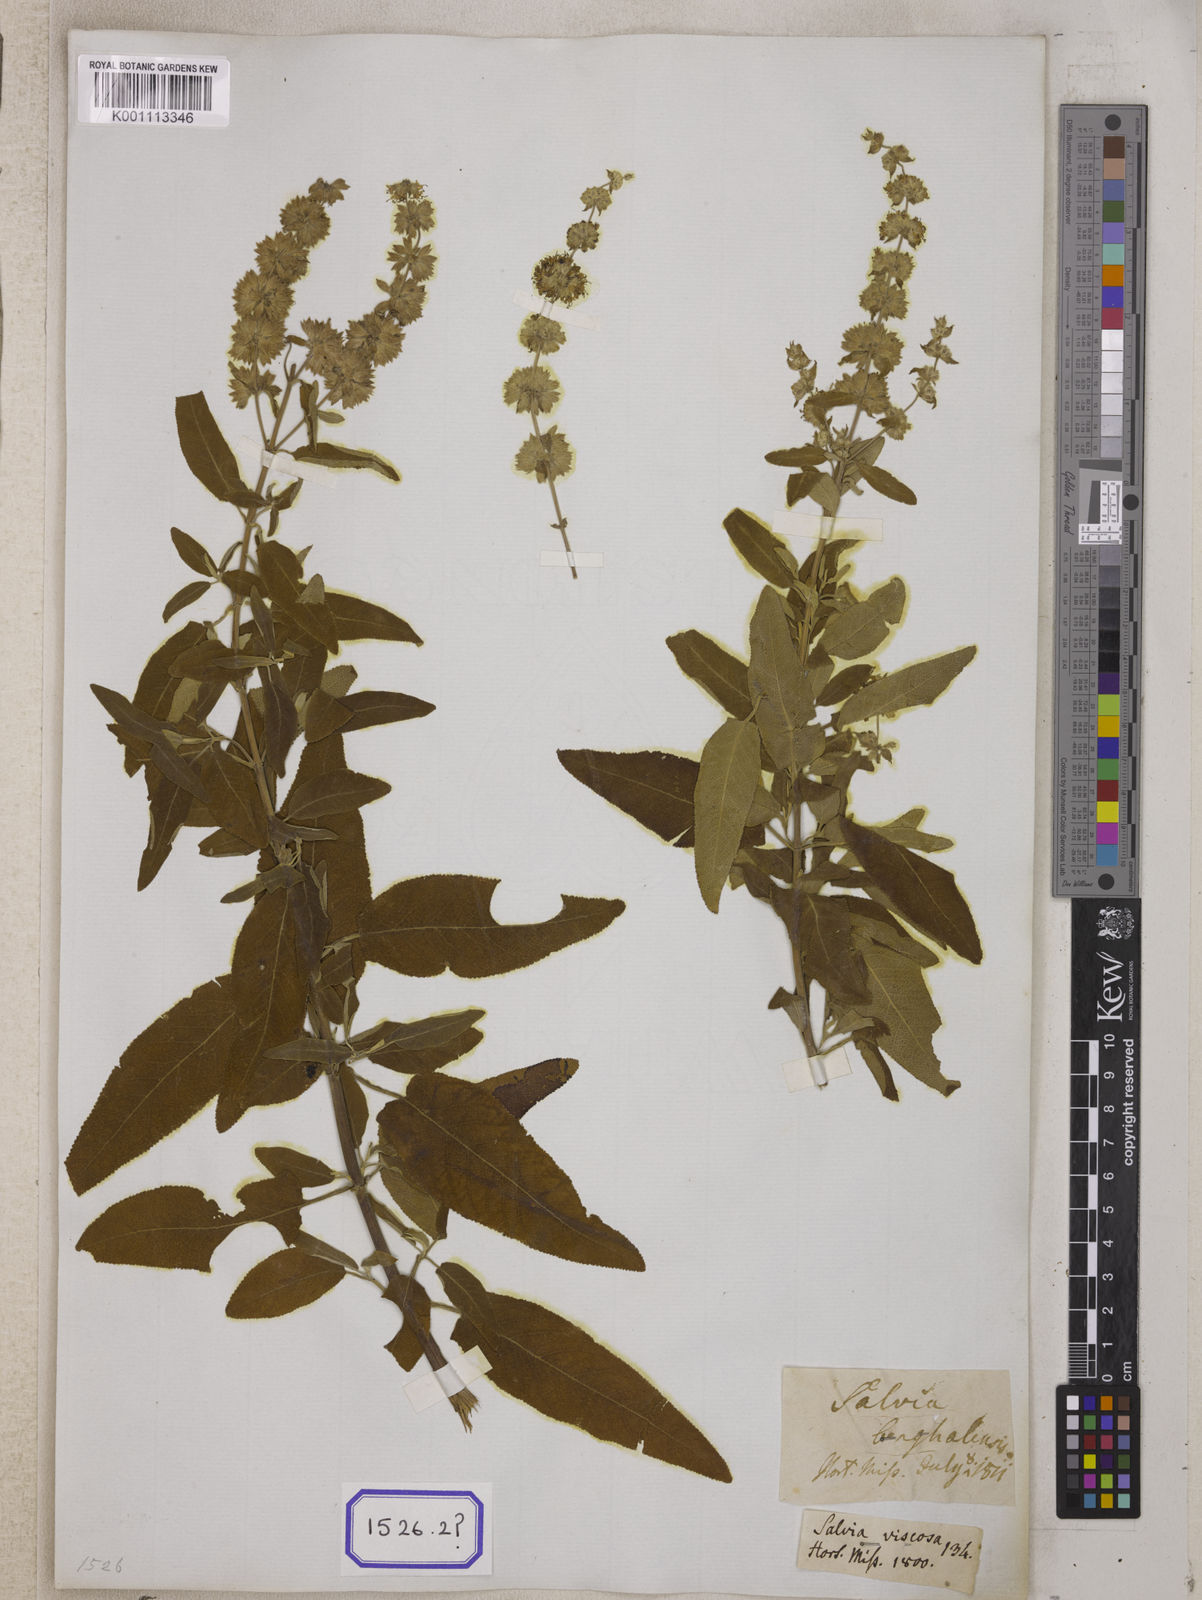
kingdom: Plantae
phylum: Tracheophyta
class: Magnoliopsida
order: Lamiales
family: Lamiaceae
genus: Salvia
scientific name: Salvia dianthera
